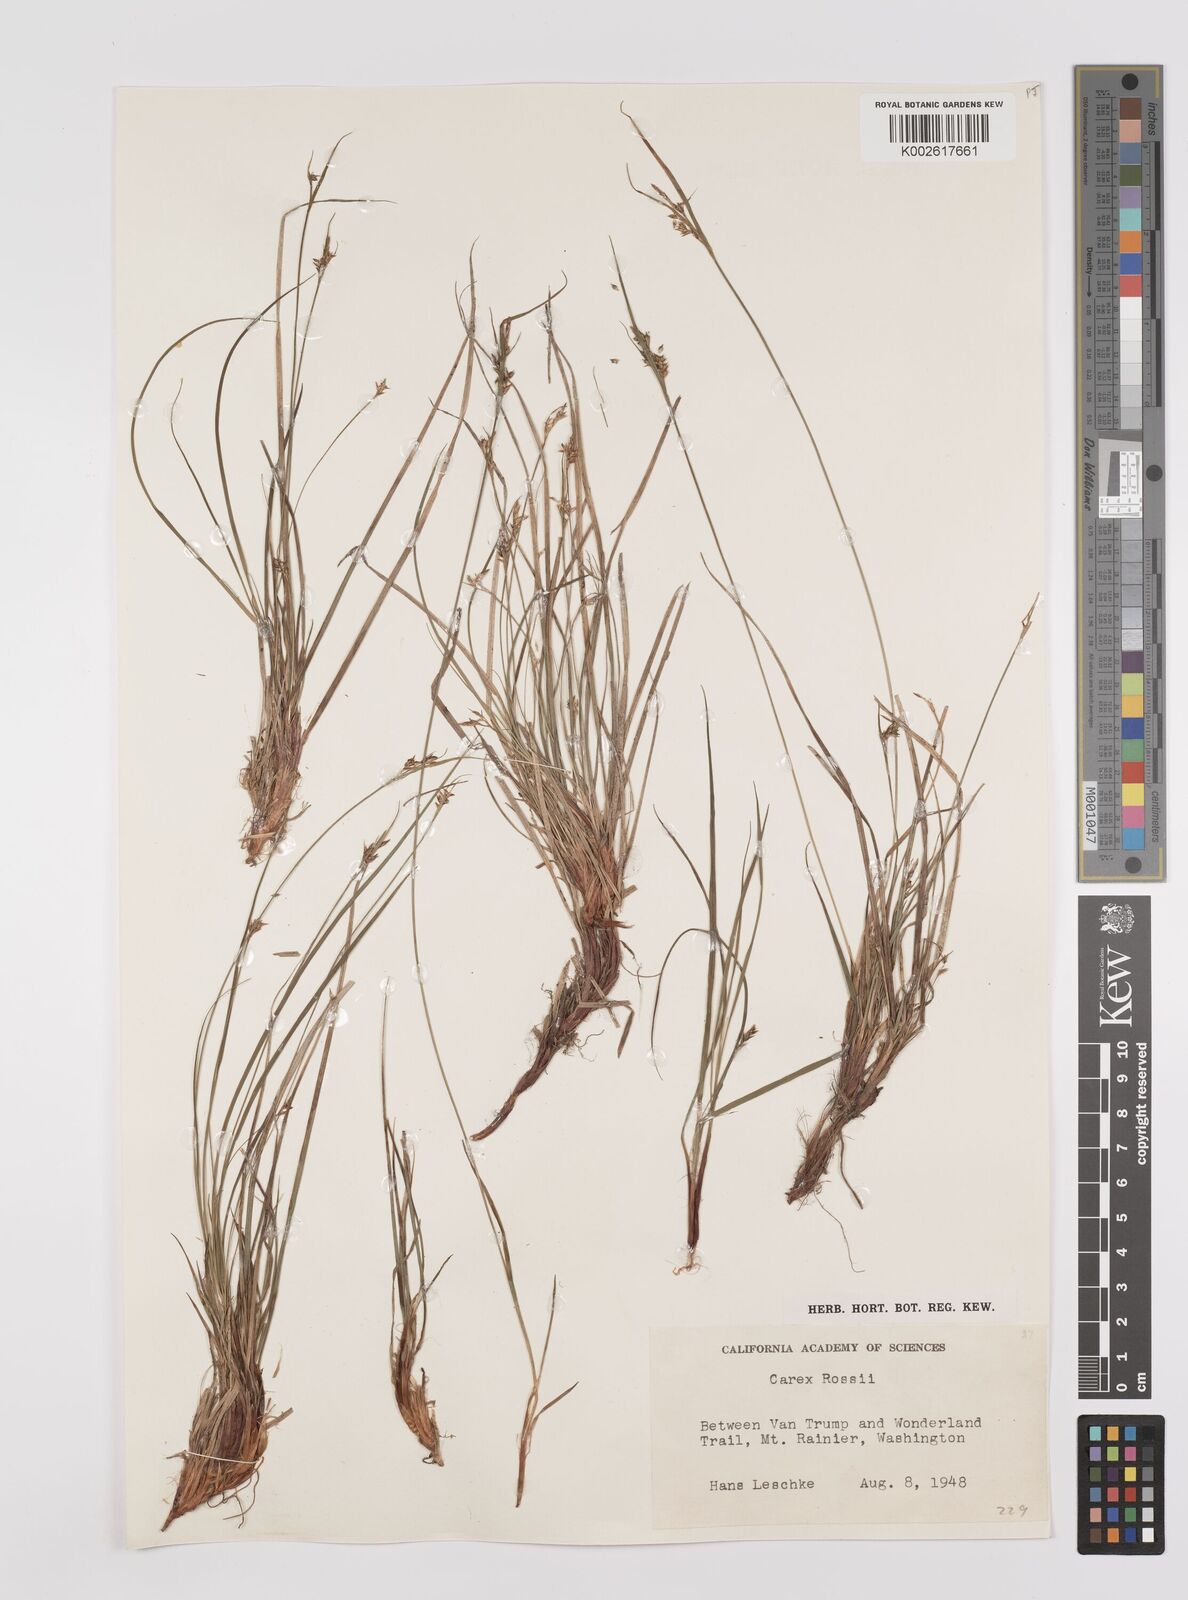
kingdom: Plantae
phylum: Tracheophyta
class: Liliopsida
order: Poales
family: Cyperaceae
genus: Carex
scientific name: Carex rossii
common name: Ross' sedge
